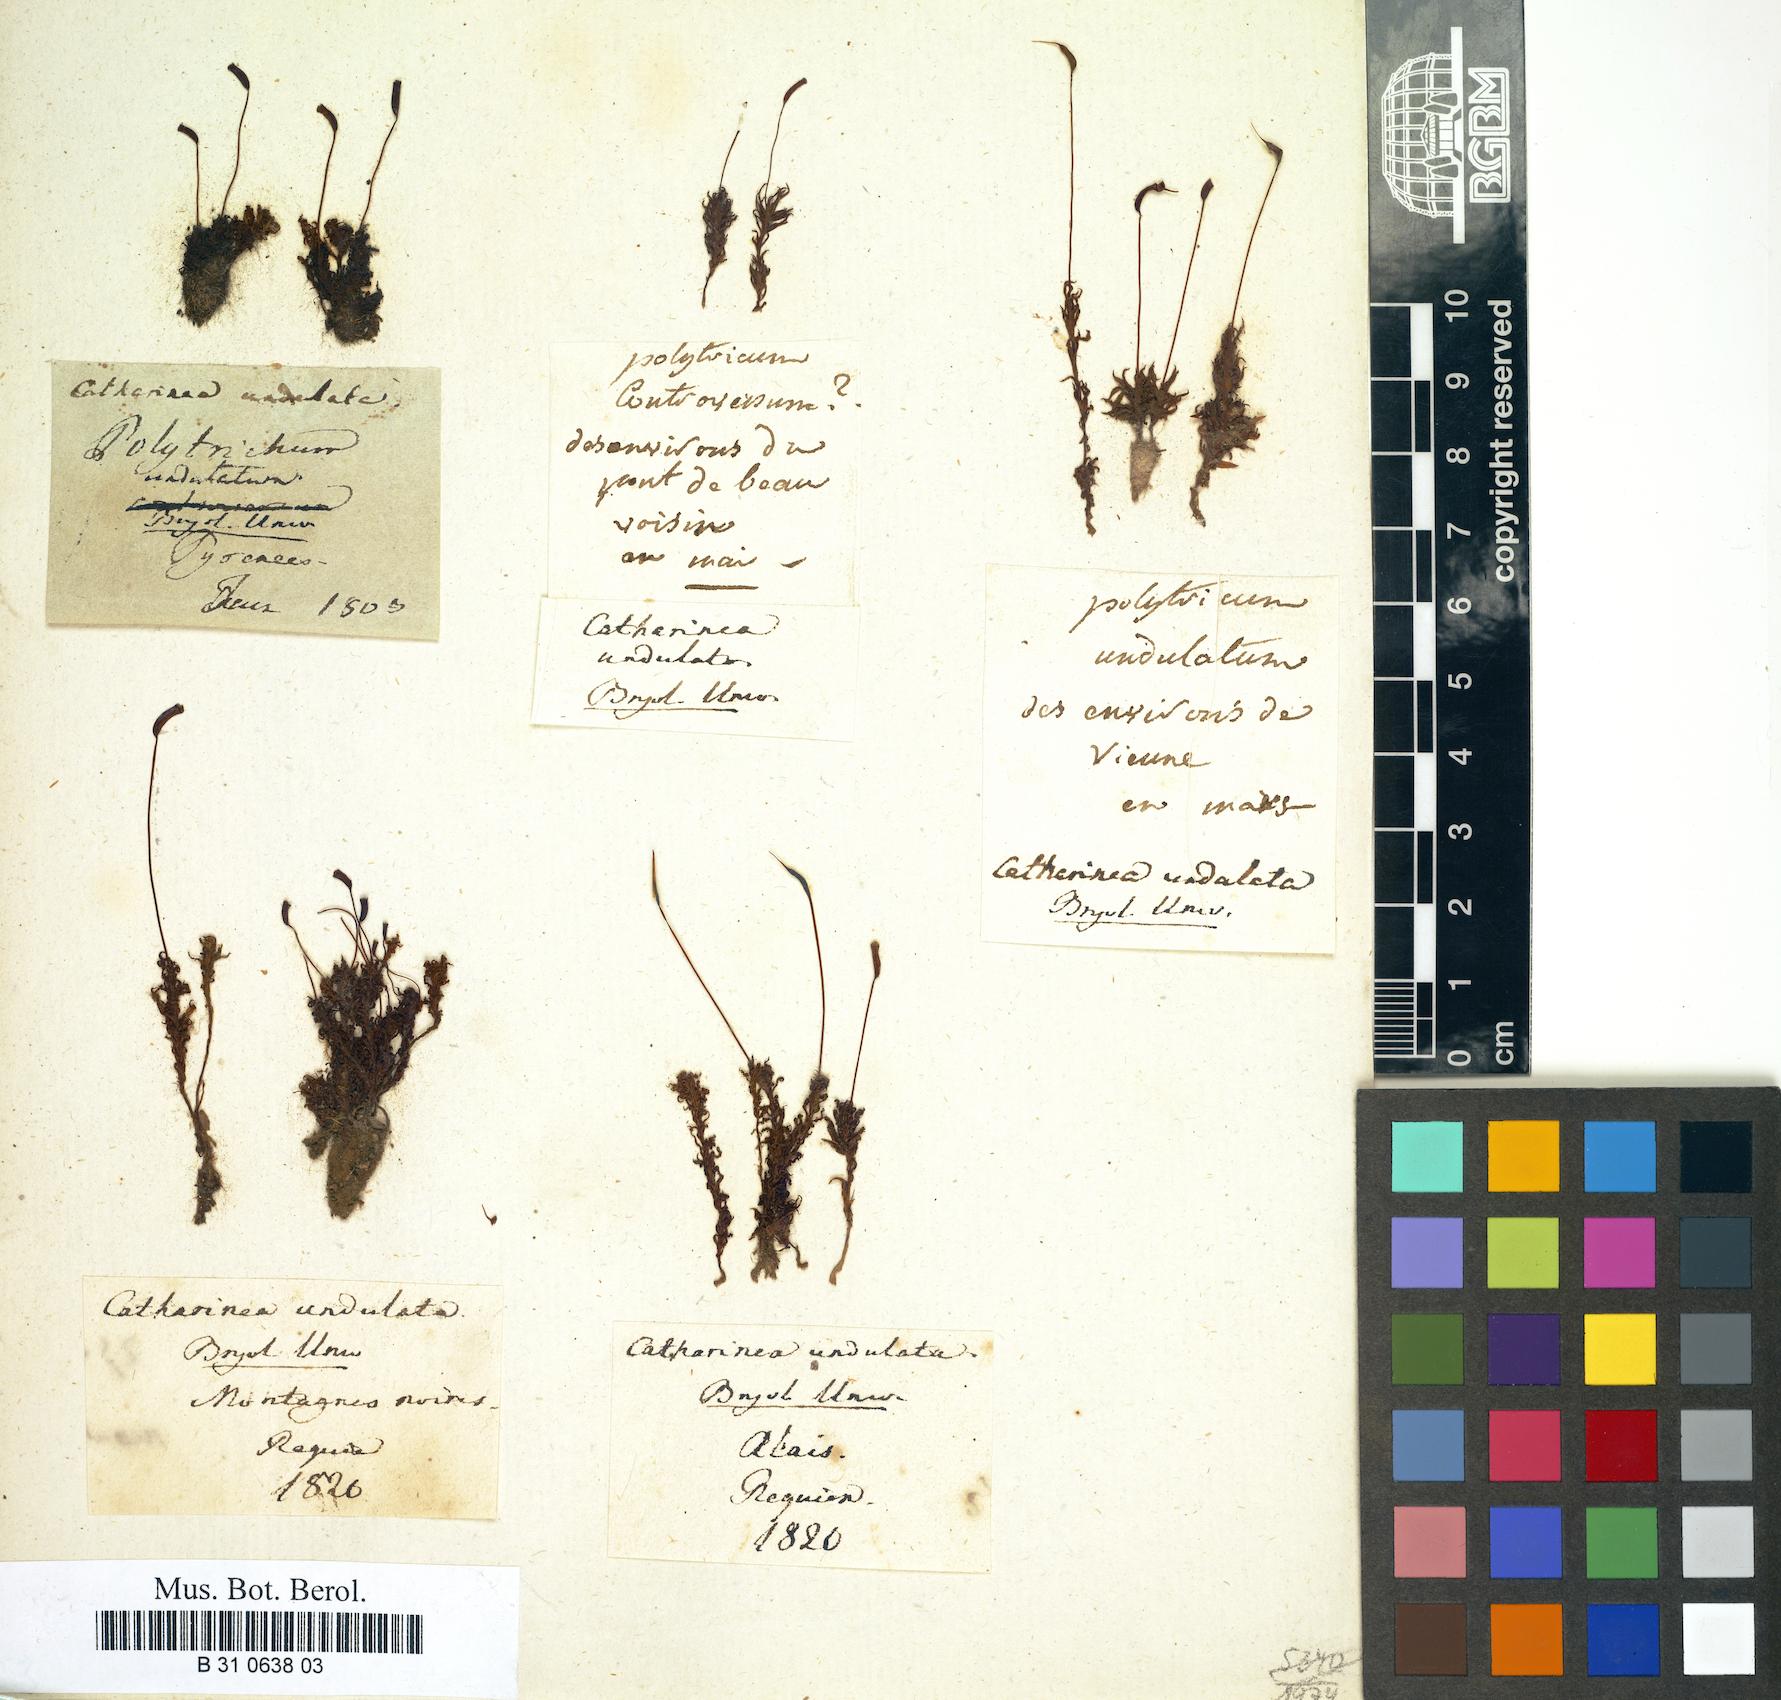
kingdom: Plantae
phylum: Bryophyta
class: Polytrichopsida
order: Polytrichales
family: Polytrichaceae
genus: Atrichum
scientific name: Atrichum undulatum
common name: Common smoothcap
